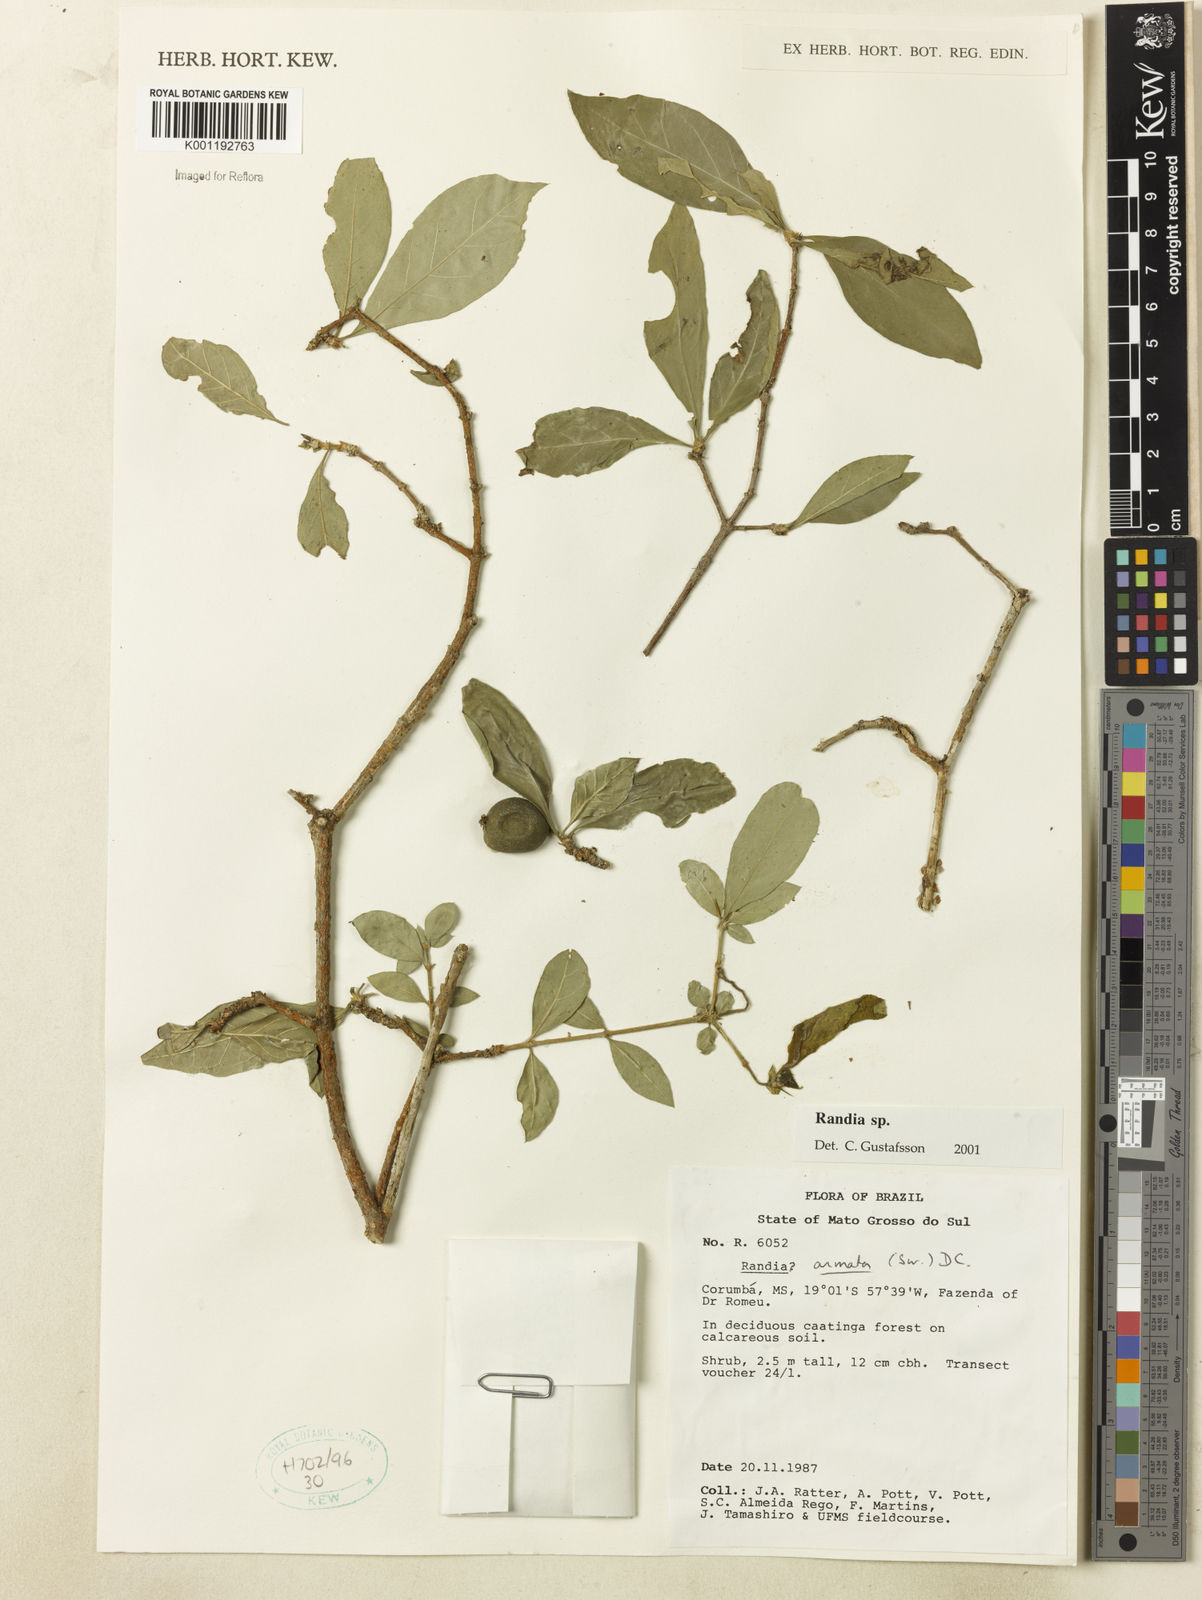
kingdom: Plantae
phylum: Tracheophyta
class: Magnoliopsida
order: Gentianales
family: Rubiaceae
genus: Randia
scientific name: Randia
